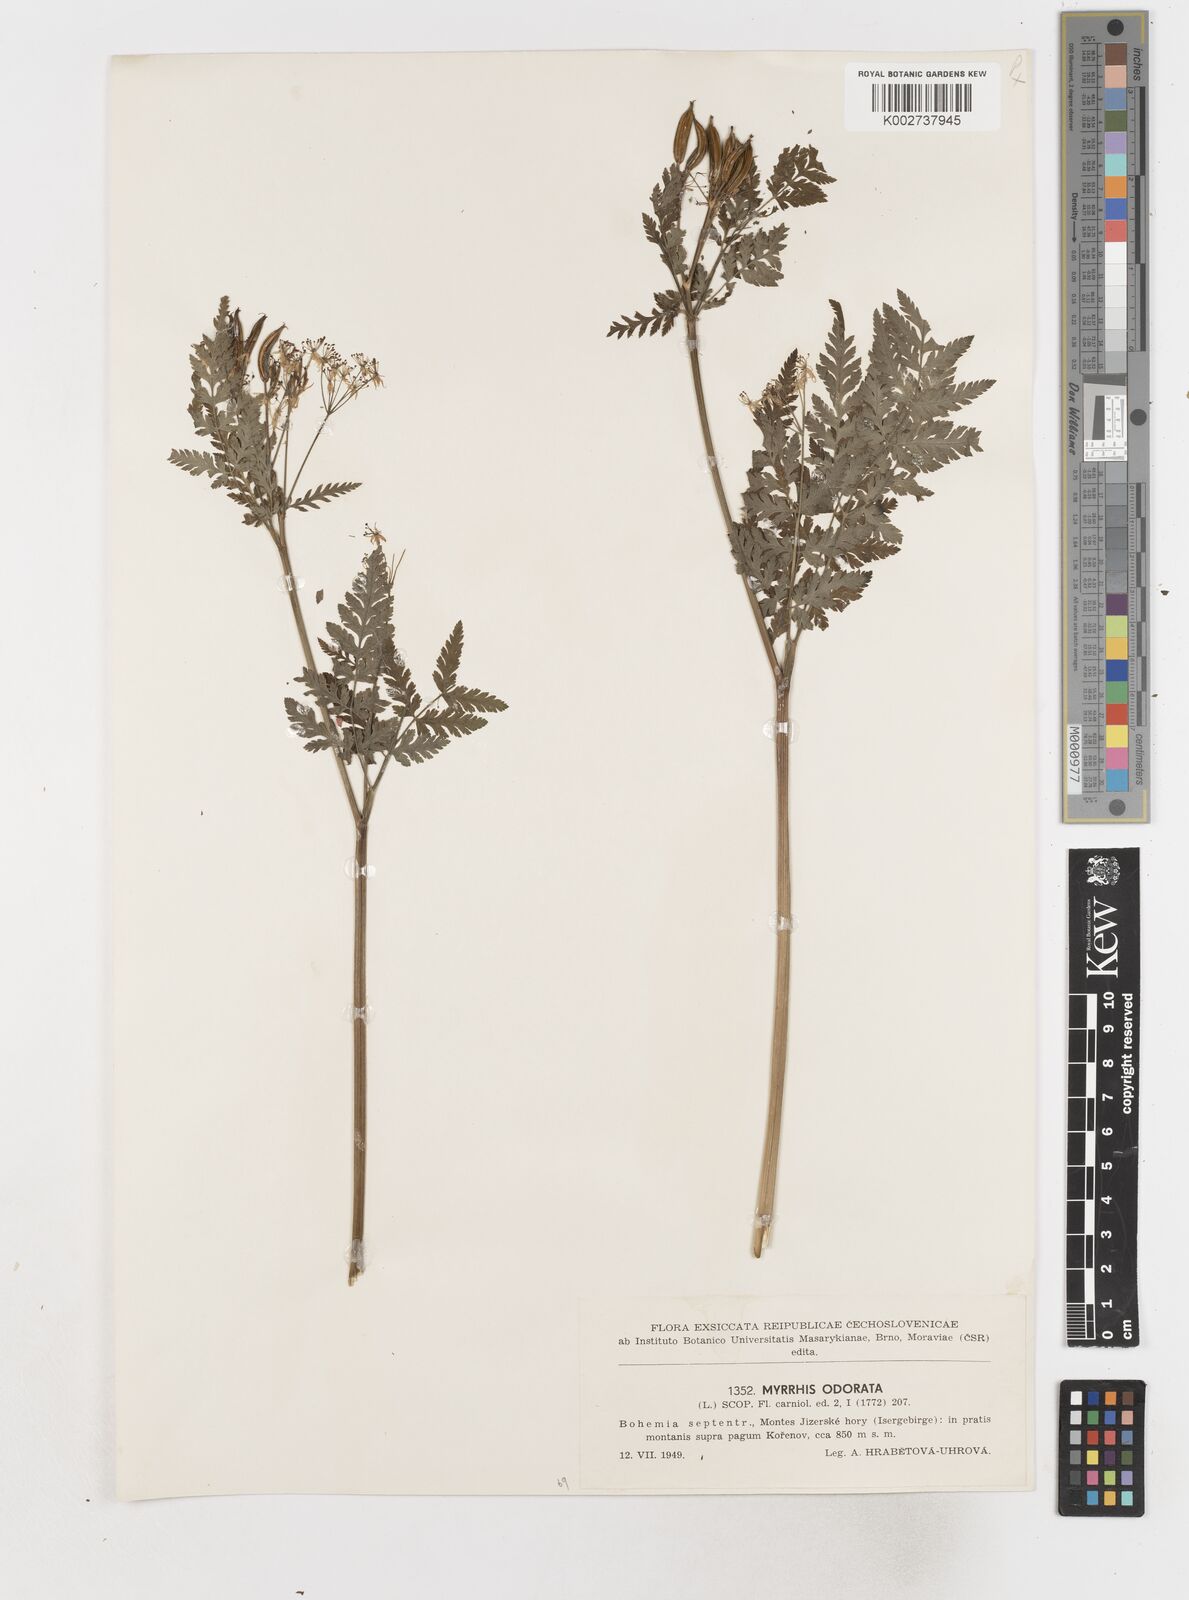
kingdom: Plantae
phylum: Tracheophyta
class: Magnoliopsida
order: Apiales
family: Apiaceae
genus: Myrrhis
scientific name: Myrrhis odorata
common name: Sweet cicely
